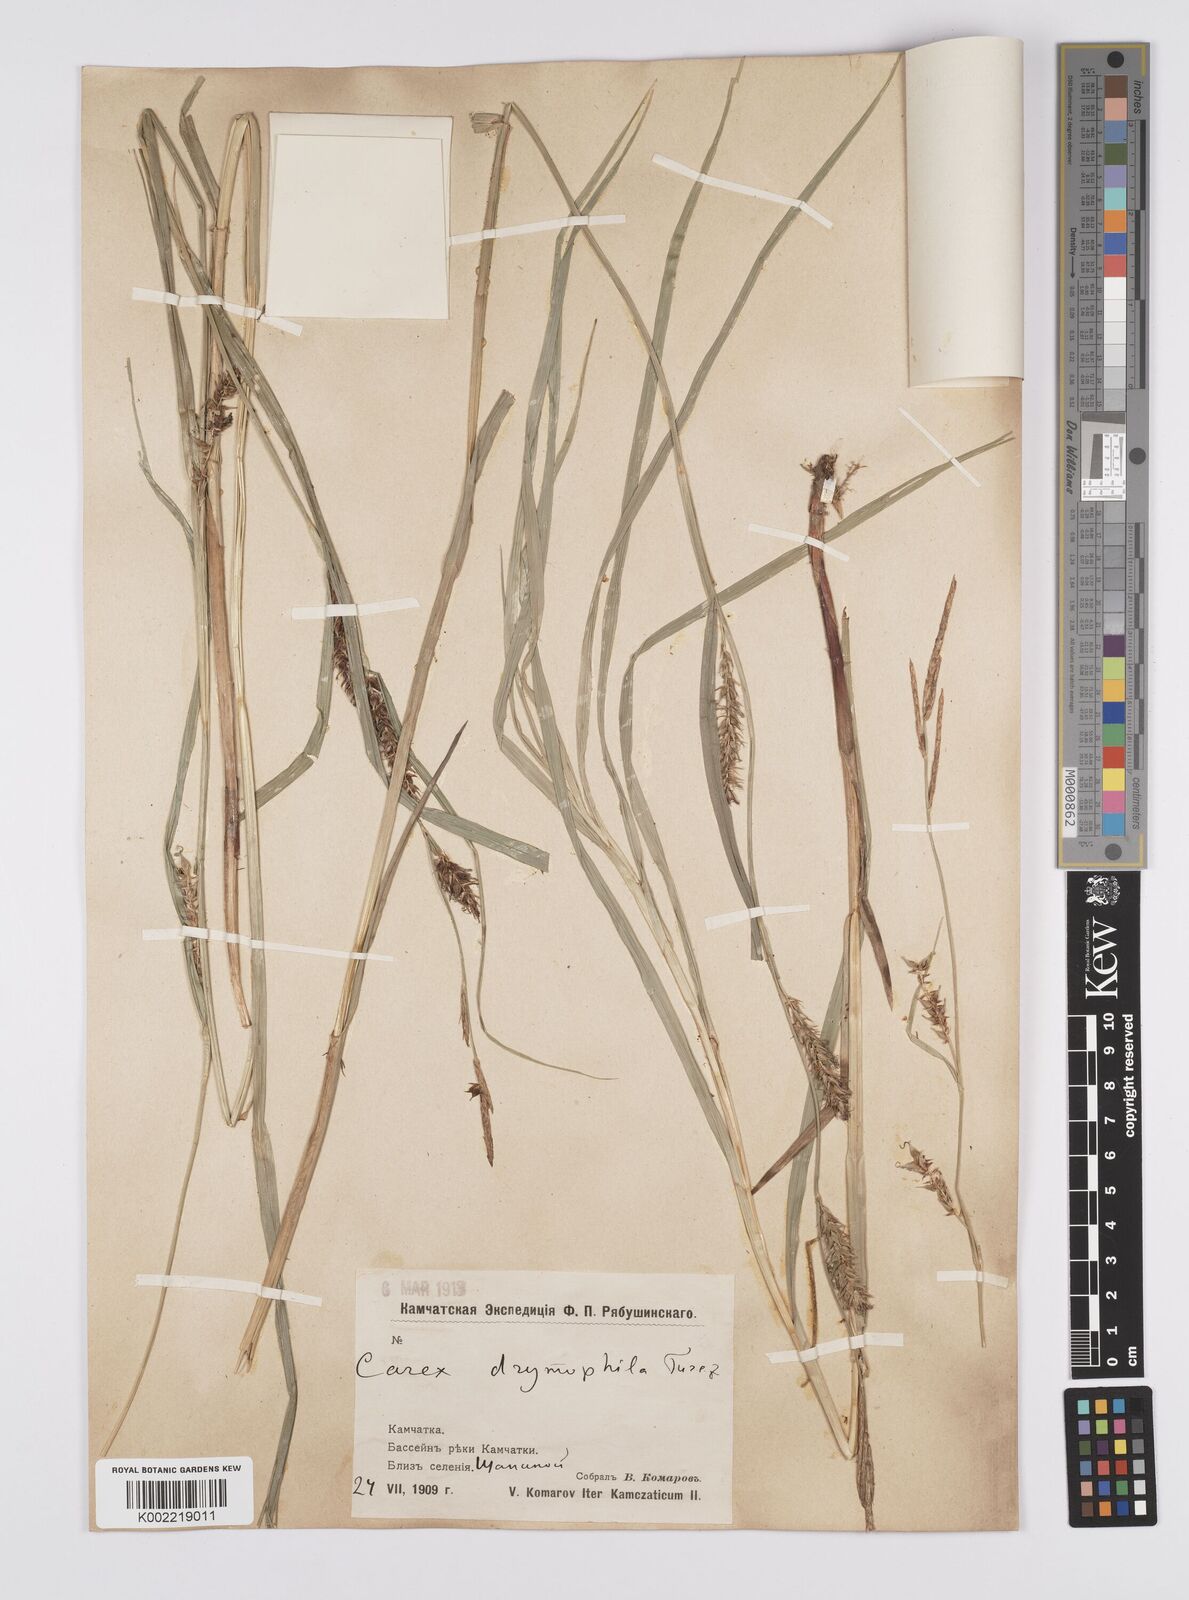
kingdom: Plantae
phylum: Tracheophyta
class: Liliopsida
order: Poales
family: Cyperaceae
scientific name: Cyperaceae
